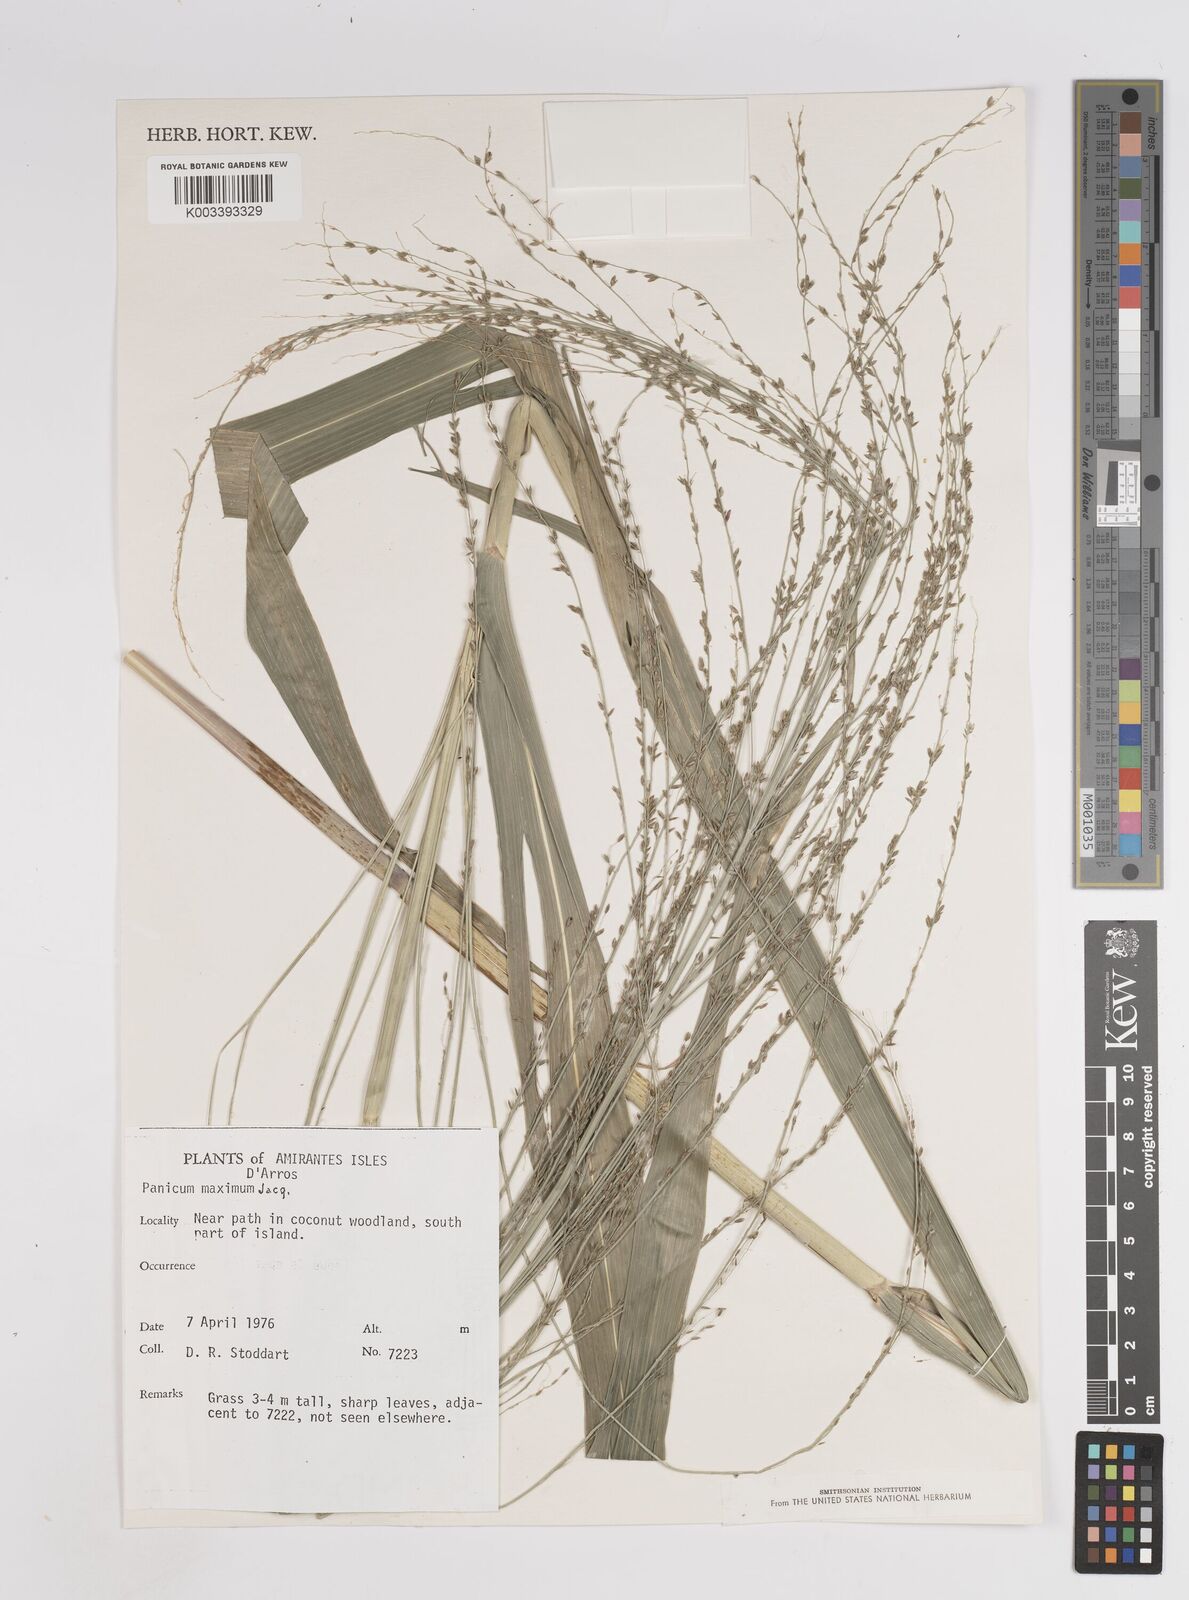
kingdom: Plantae
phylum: Tracheophyta
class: Liliopsida
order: Poales
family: Poaceae
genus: Megathyrsus
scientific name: Megathyrsus maximus
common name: Guineagrass
